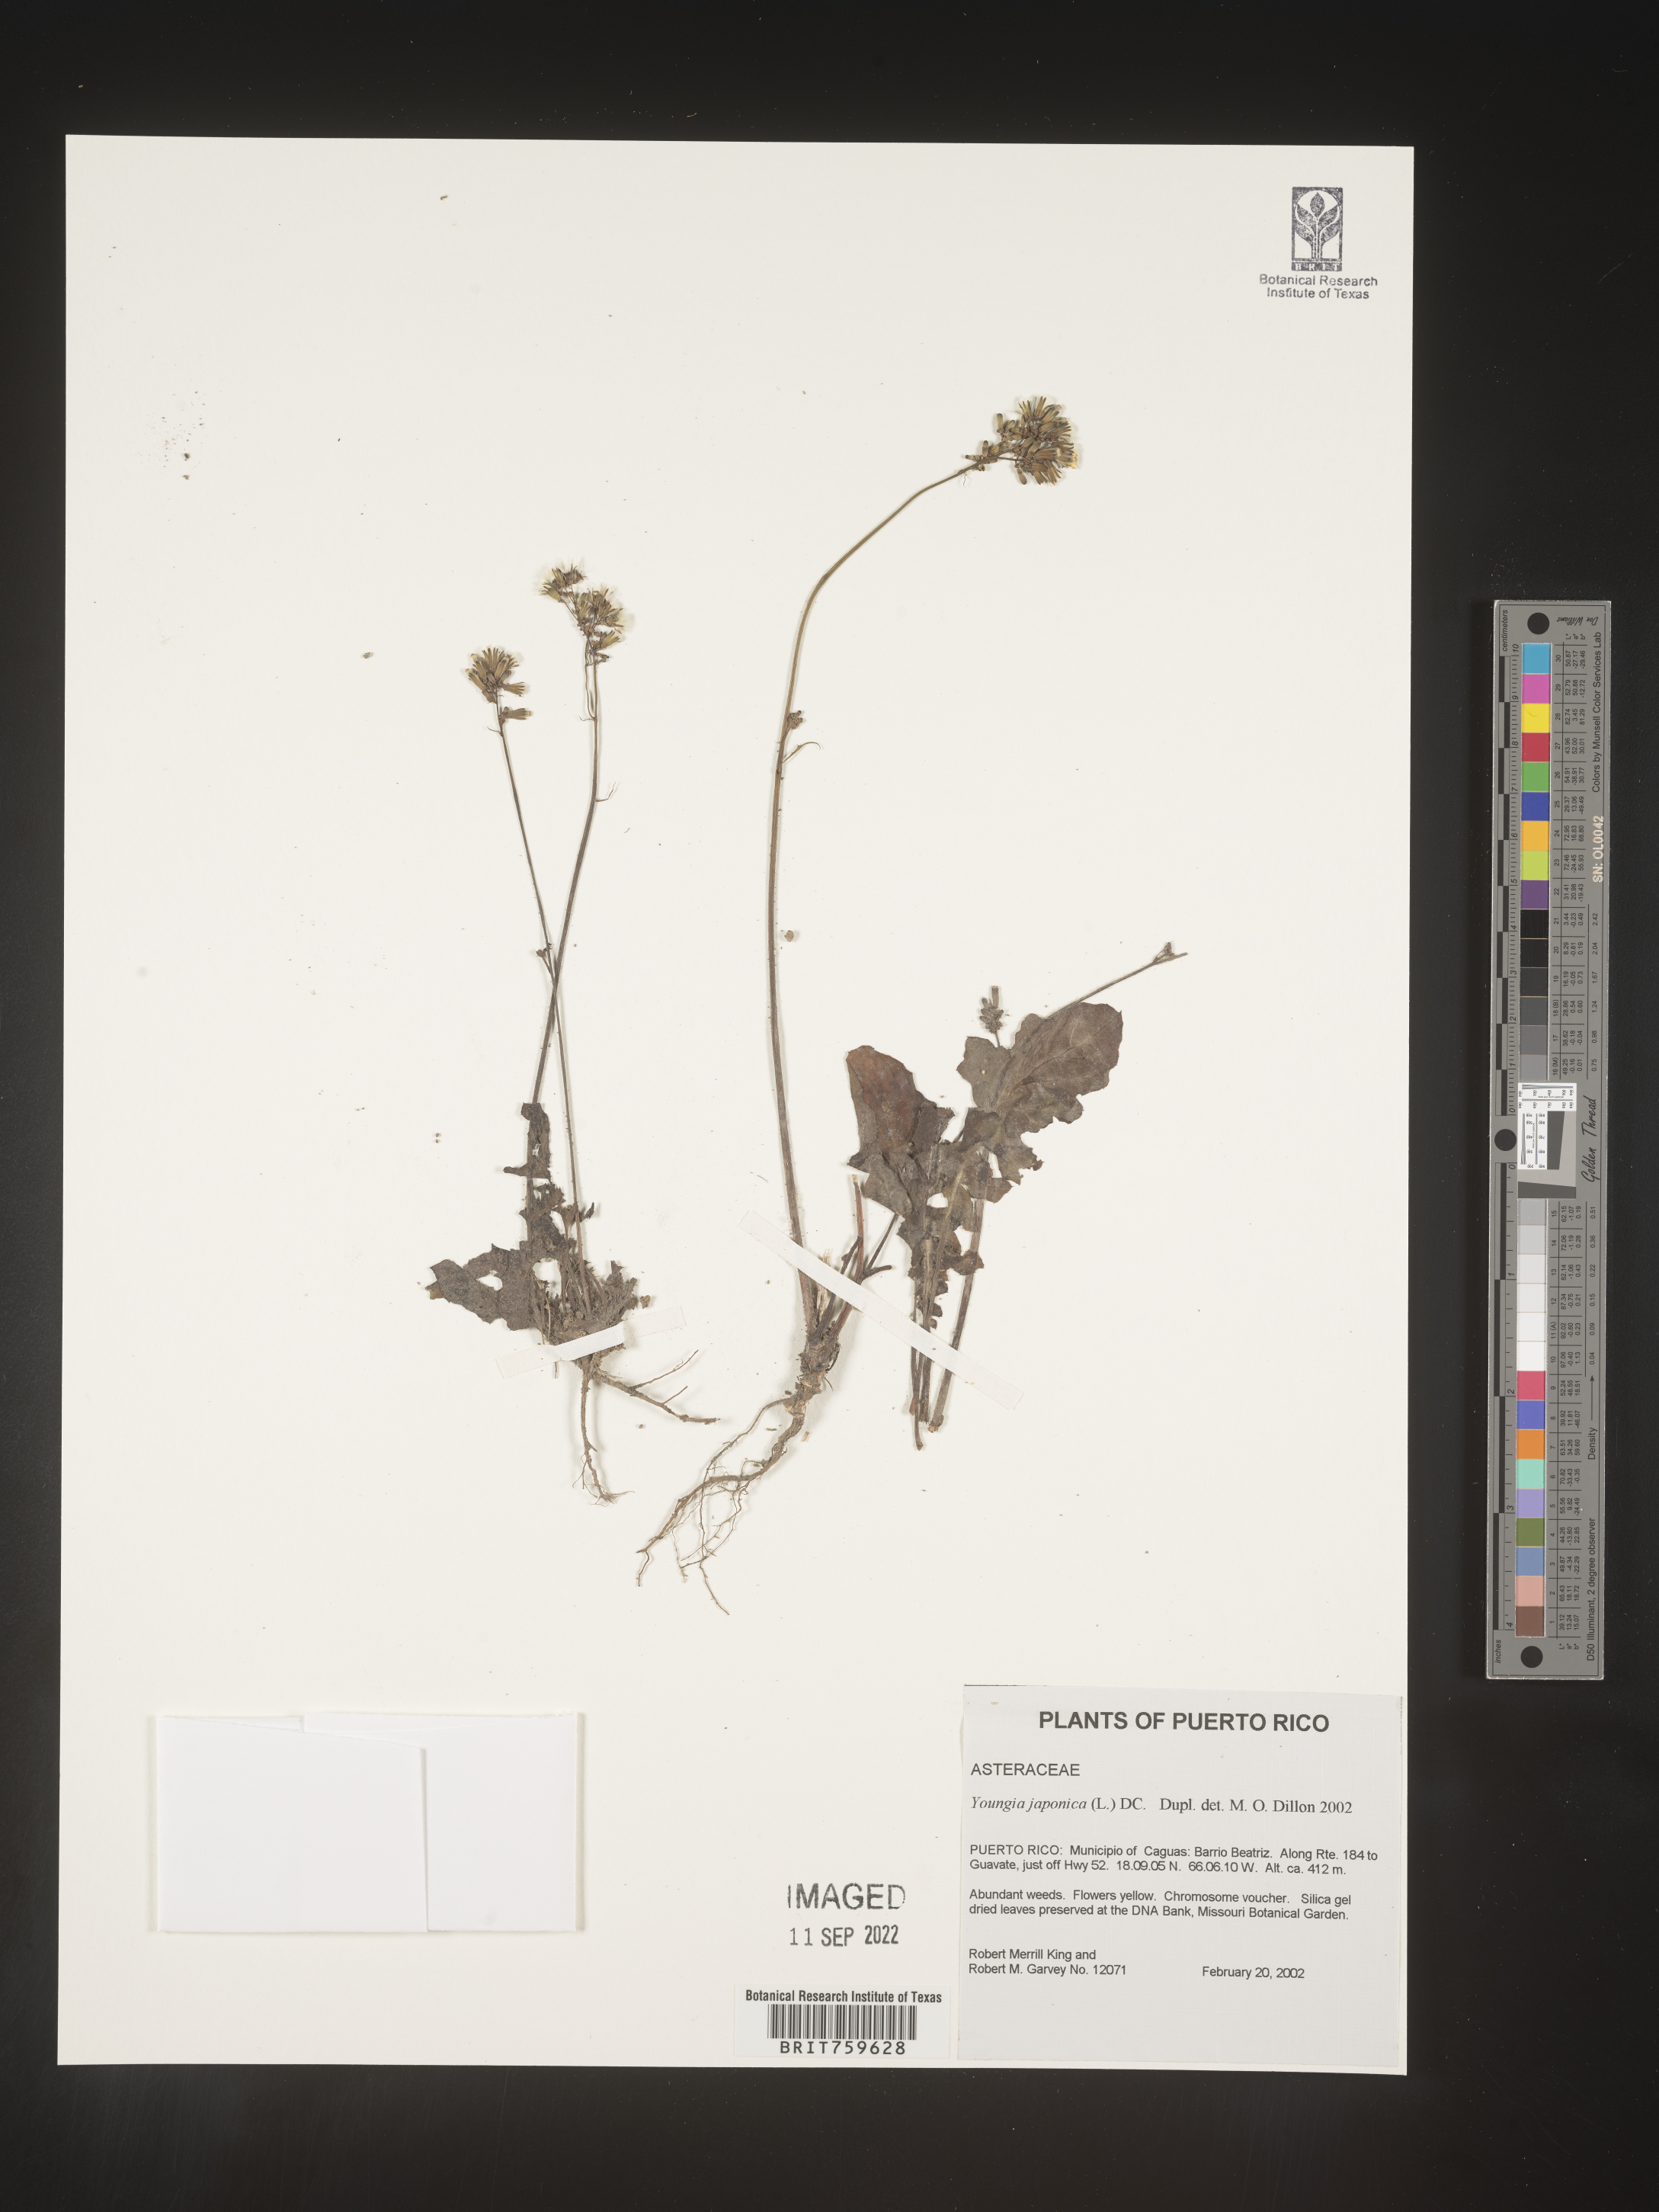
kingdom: Plantae
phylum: Tracheophyta
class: Magnoliopsida
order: Asterales
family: Asteraceae
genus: Youngia
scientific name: Youngia japonica
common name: Oriental false hawksbeard
